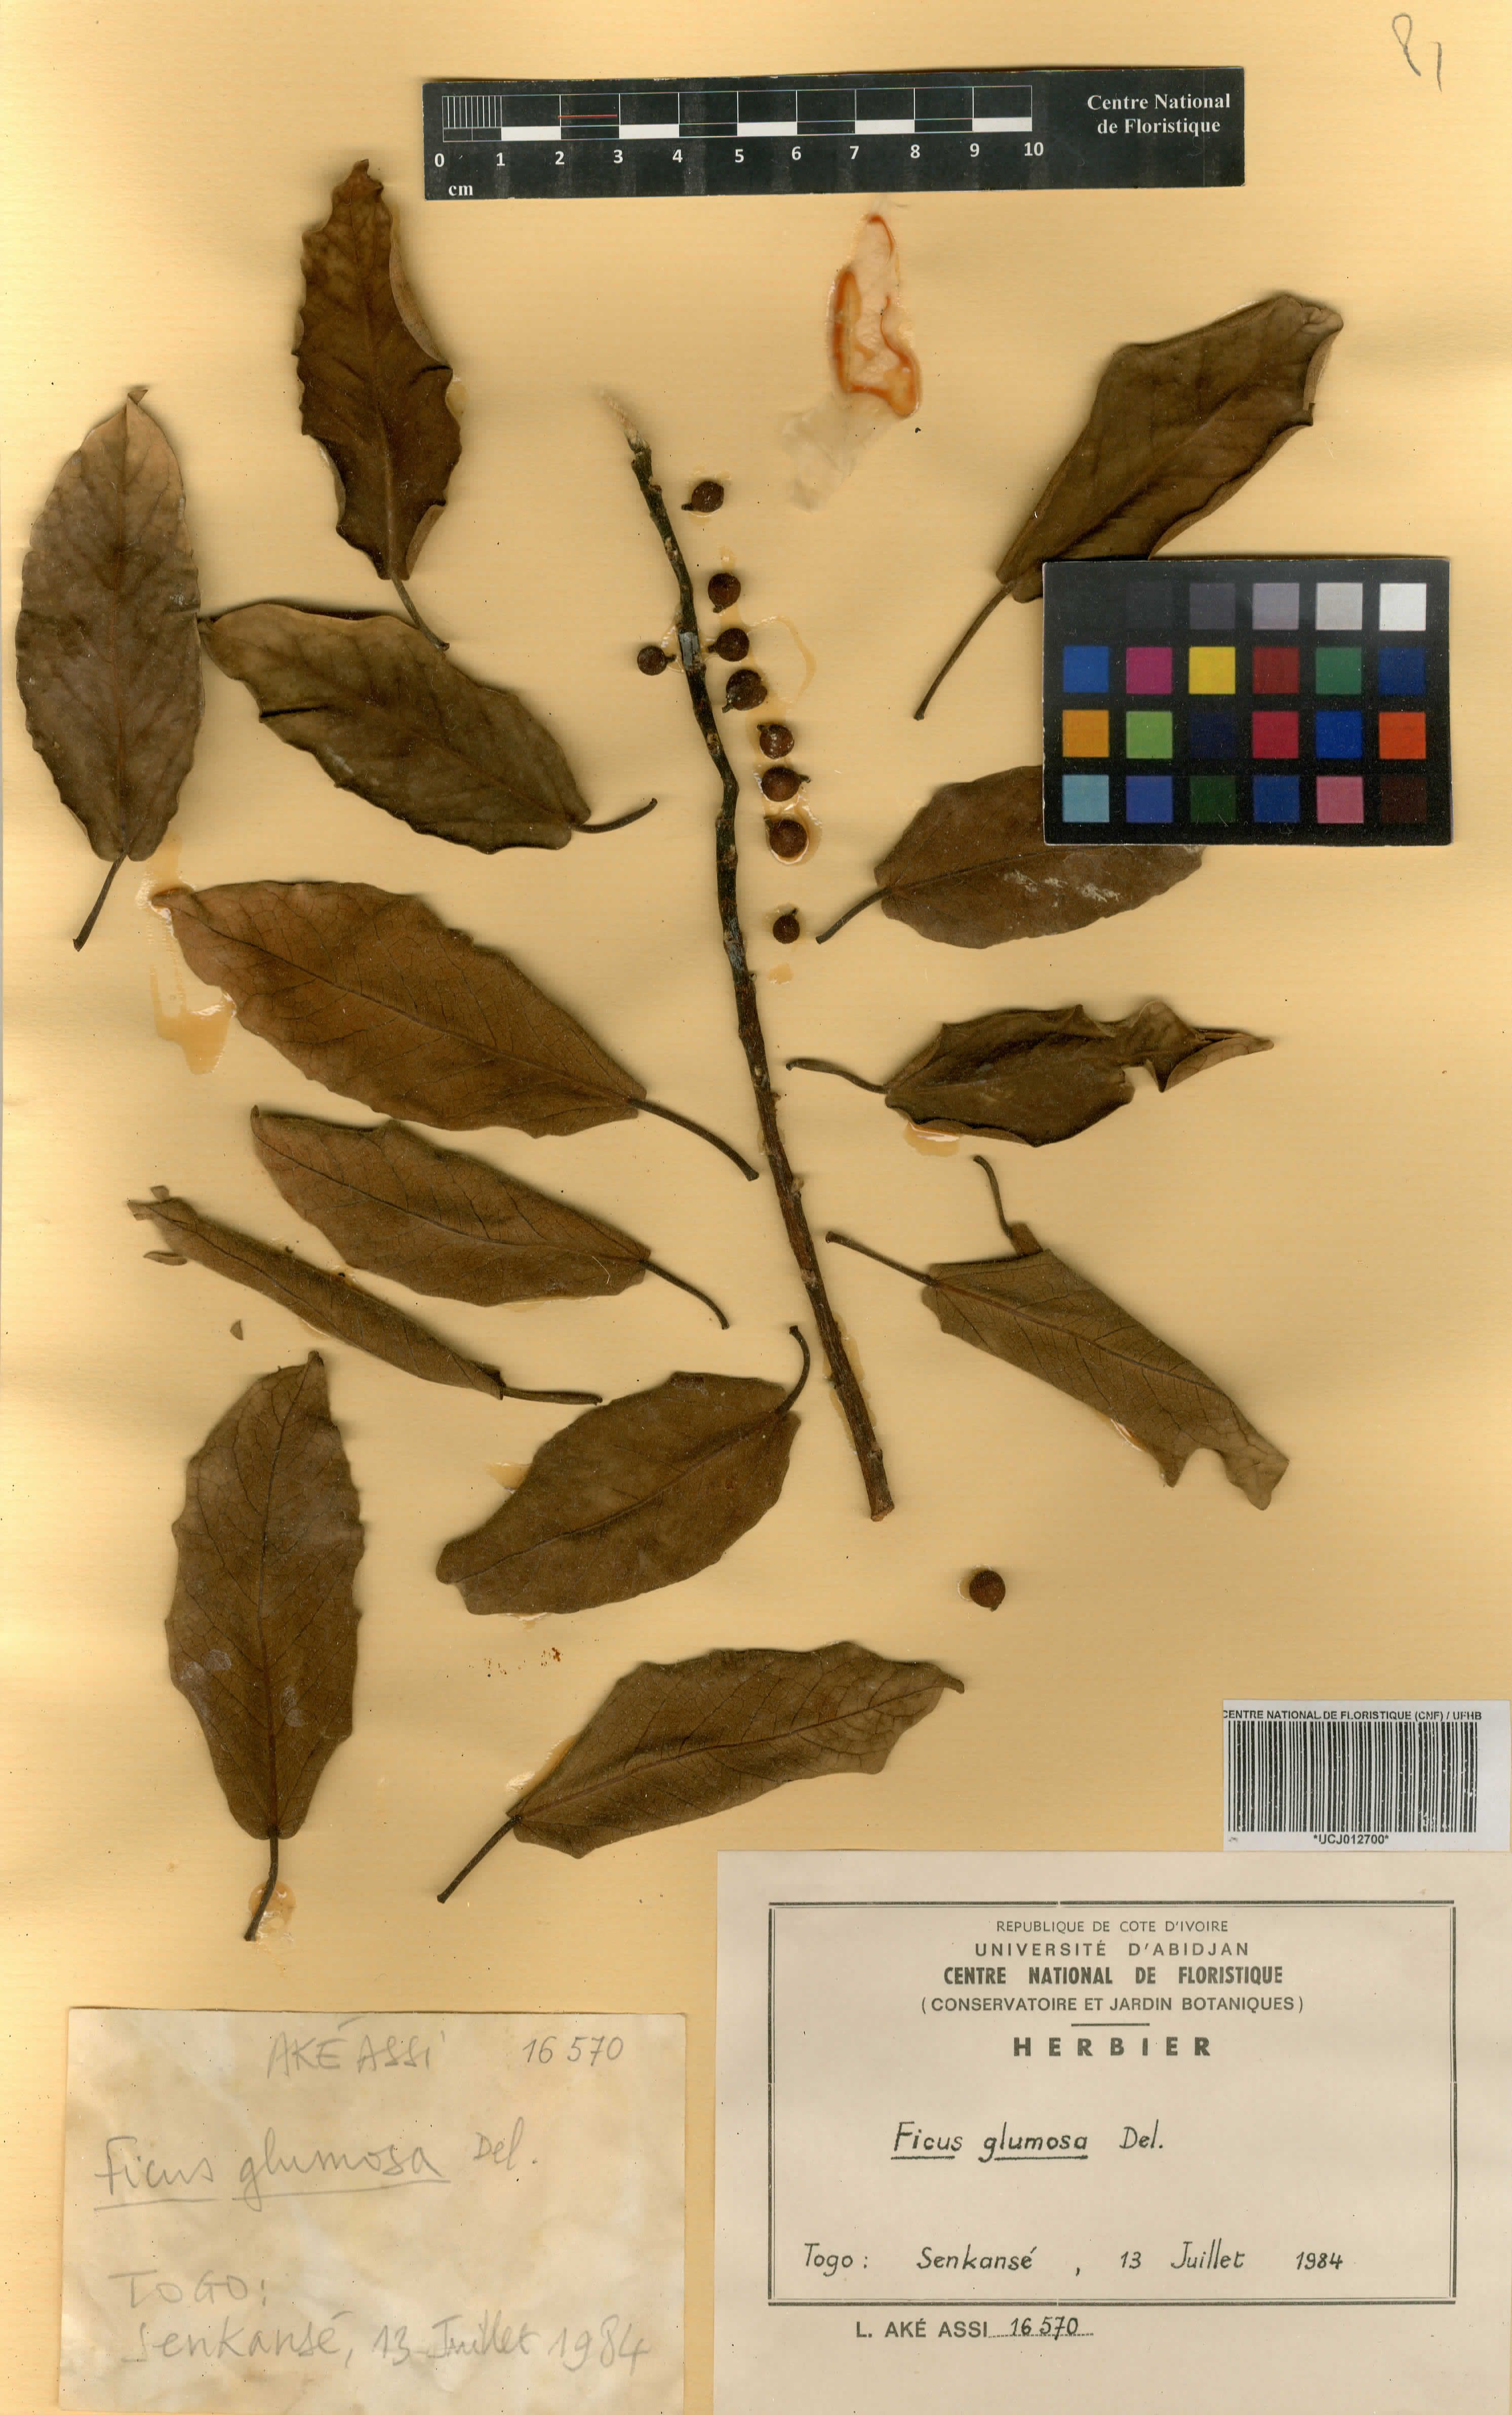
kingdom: Plantae
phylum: Tracheophyta
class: Magnoliopsida
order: Rosales
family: Moraceae
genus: Ficus
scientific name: Ficus glumosa
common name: Hairy rock fig
